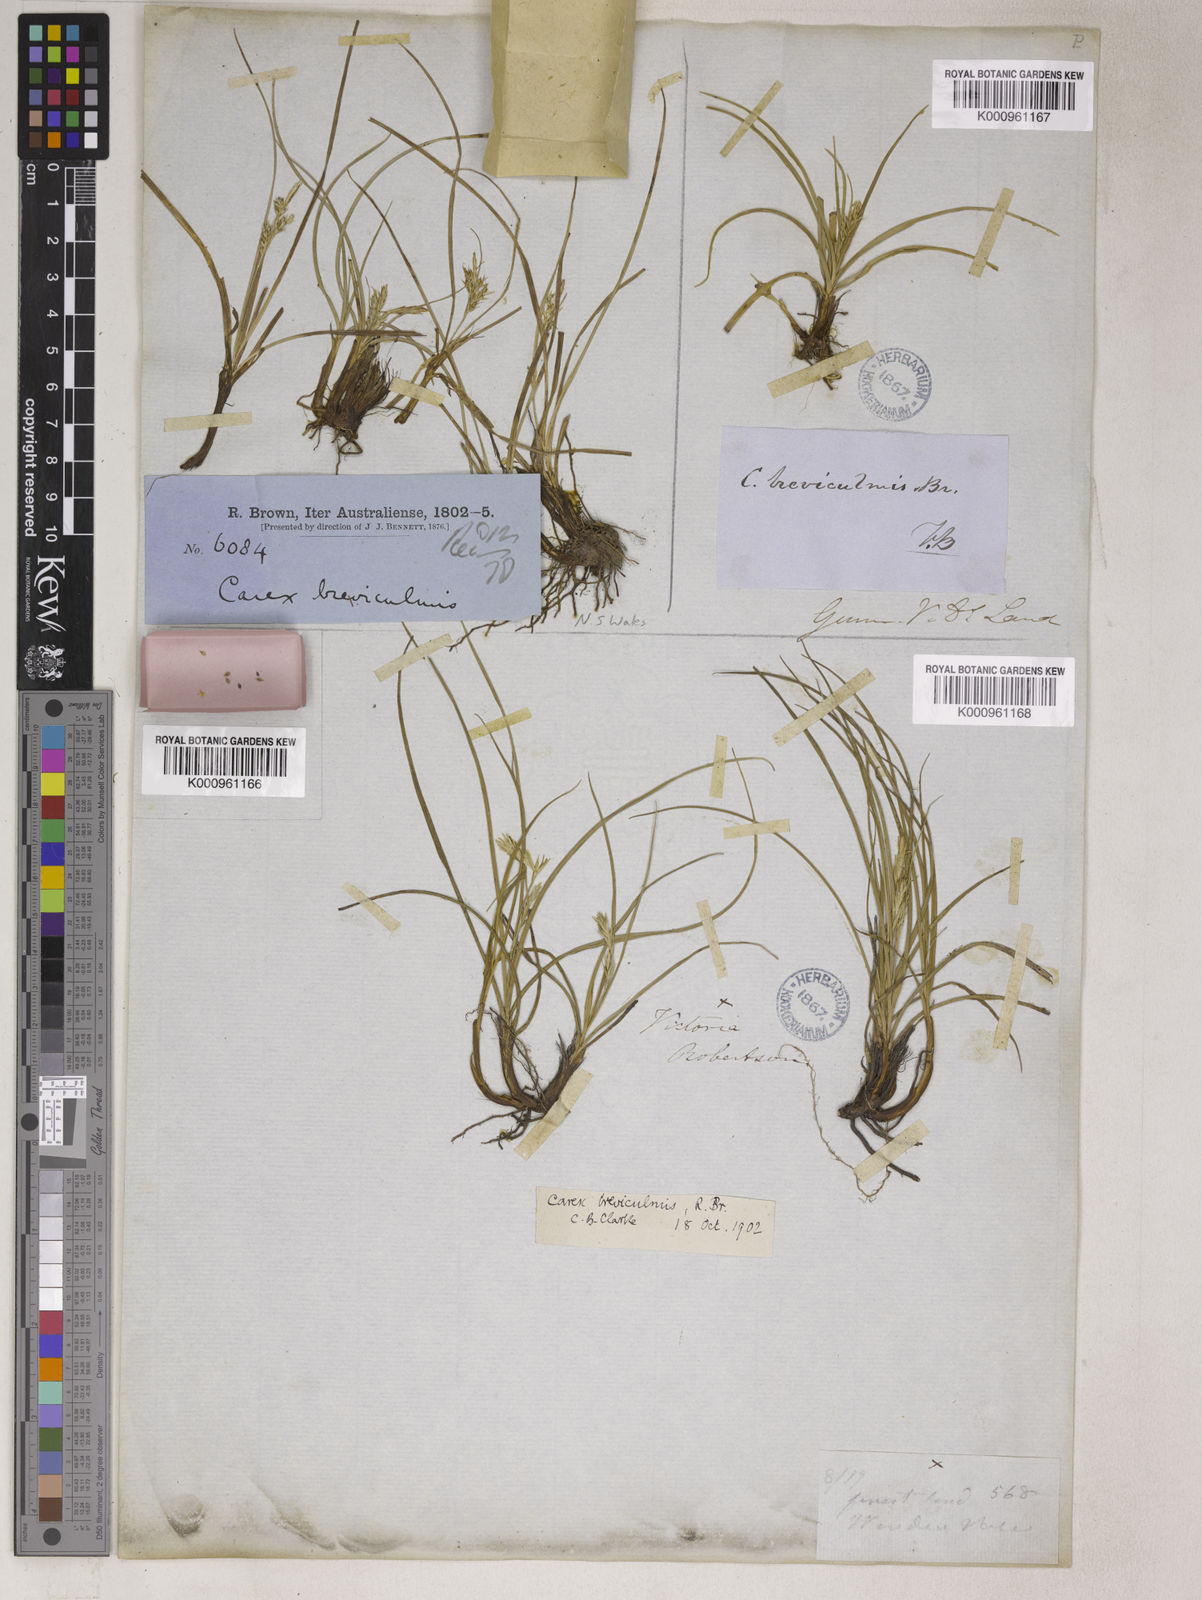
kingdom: Plantae
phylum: Tracheophyta
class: Liliopsida
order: Poales
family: Cyperaceae
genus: Carex
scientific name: Carex breviculmis
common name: Asian shortstem sedge
